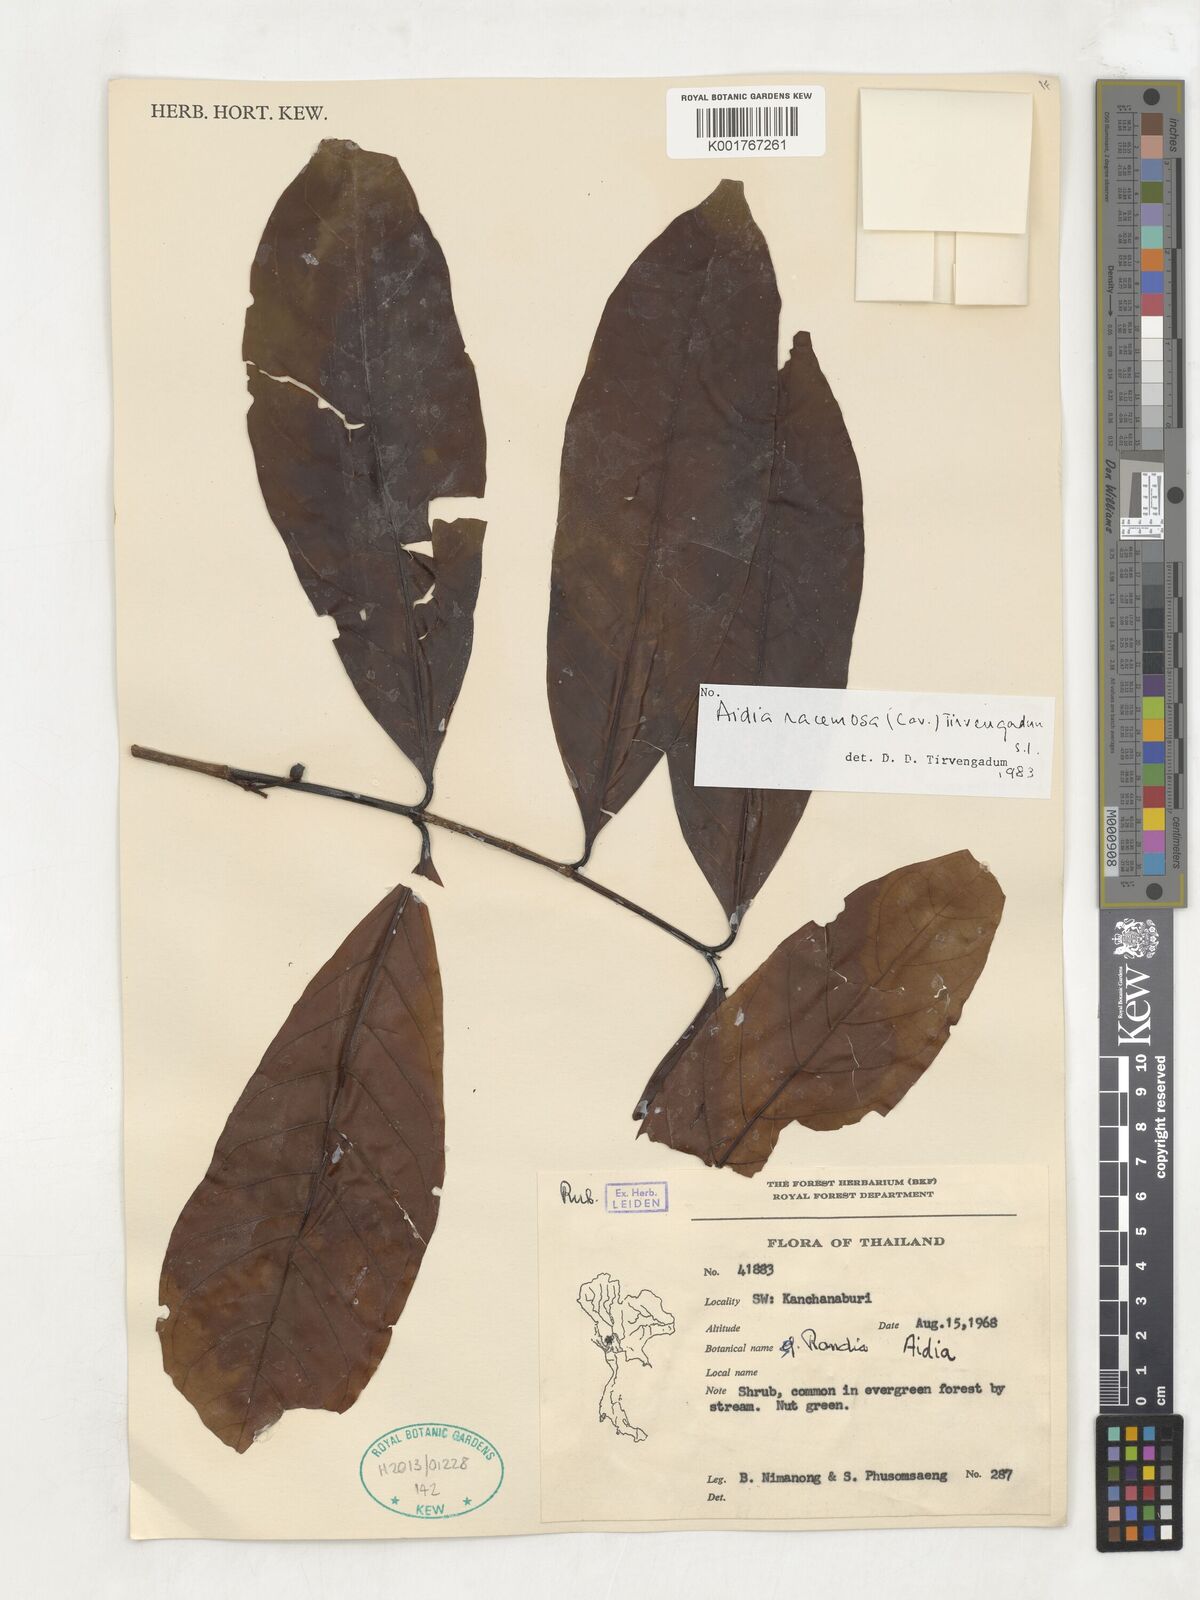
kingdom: Plantae
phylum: Tracheophyta
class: Magnoliopsida
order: Gentianales
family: Rubiaceae
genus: Aidia
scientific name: Aidia racemosa
